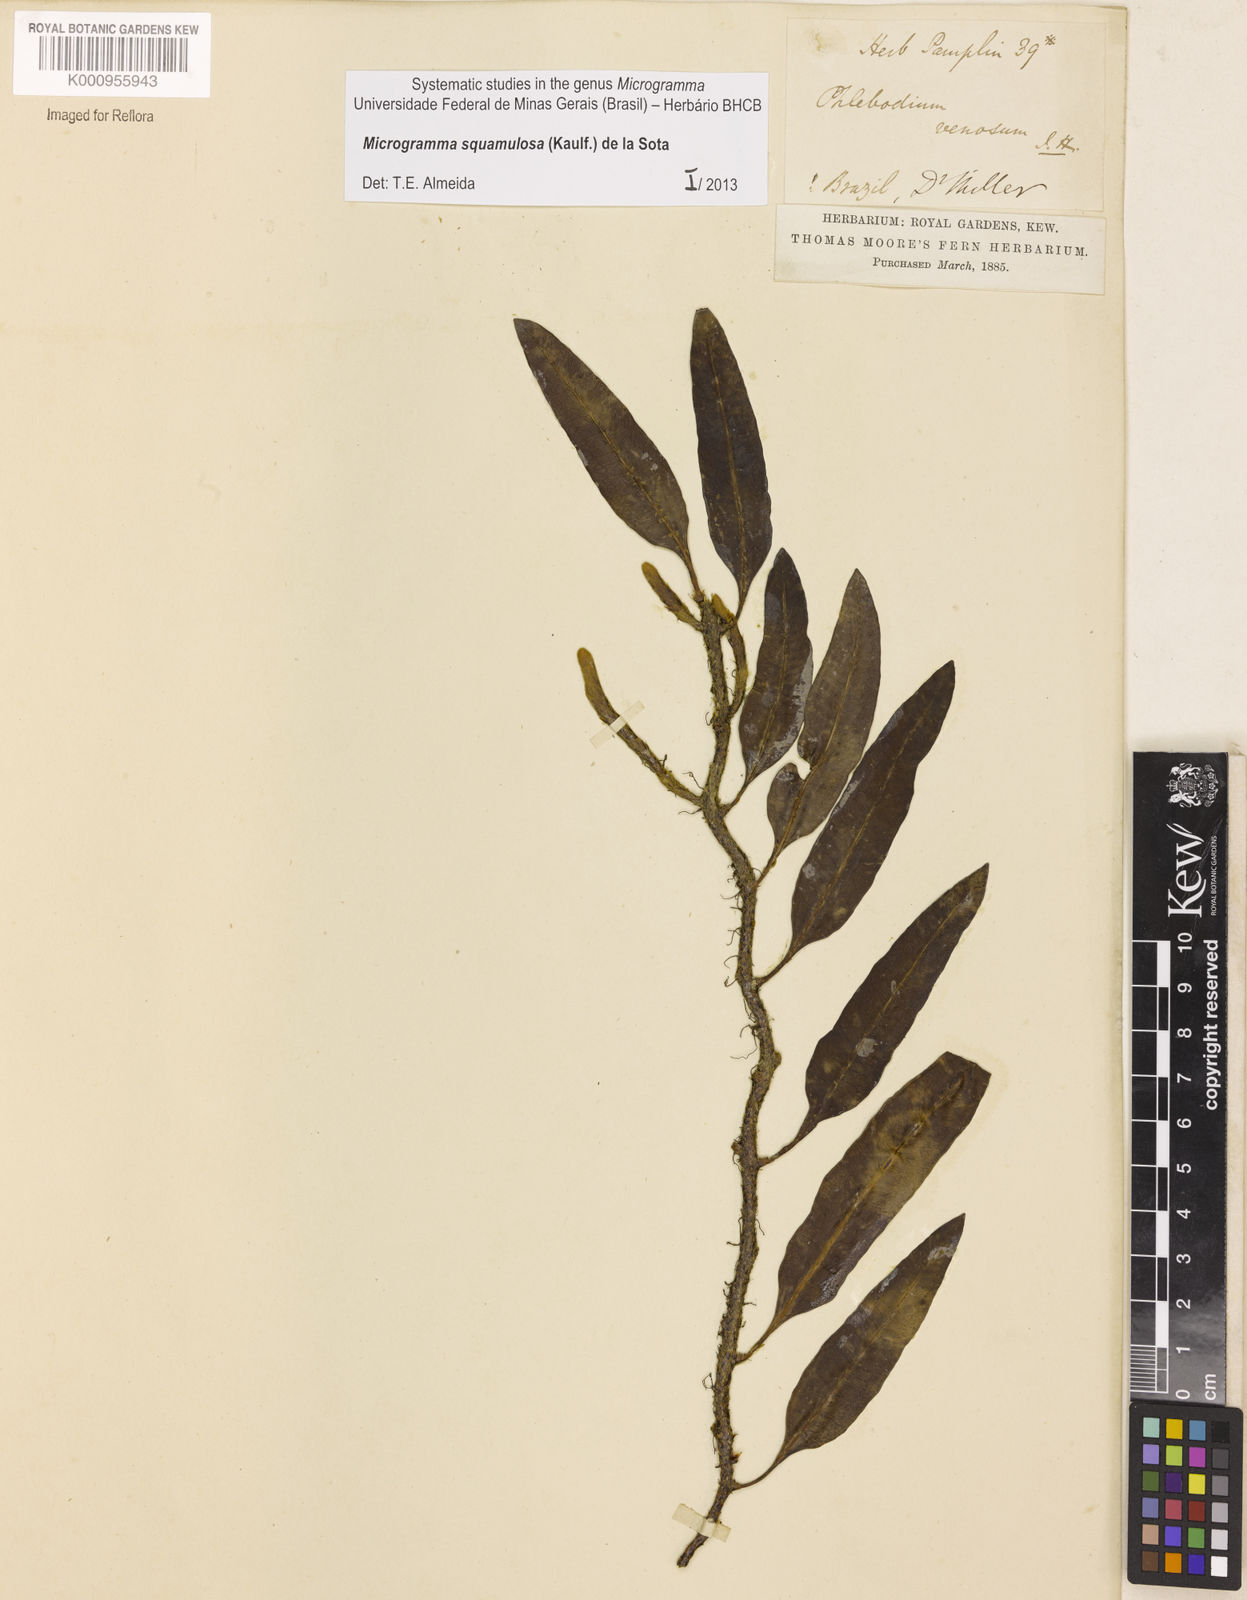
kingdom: Plantae
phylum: Tracheophyta
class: Polypodiopsida
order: Polypodiales
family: Polypodiaceae
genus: Microgramma
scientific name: Microgramma squamulosa
